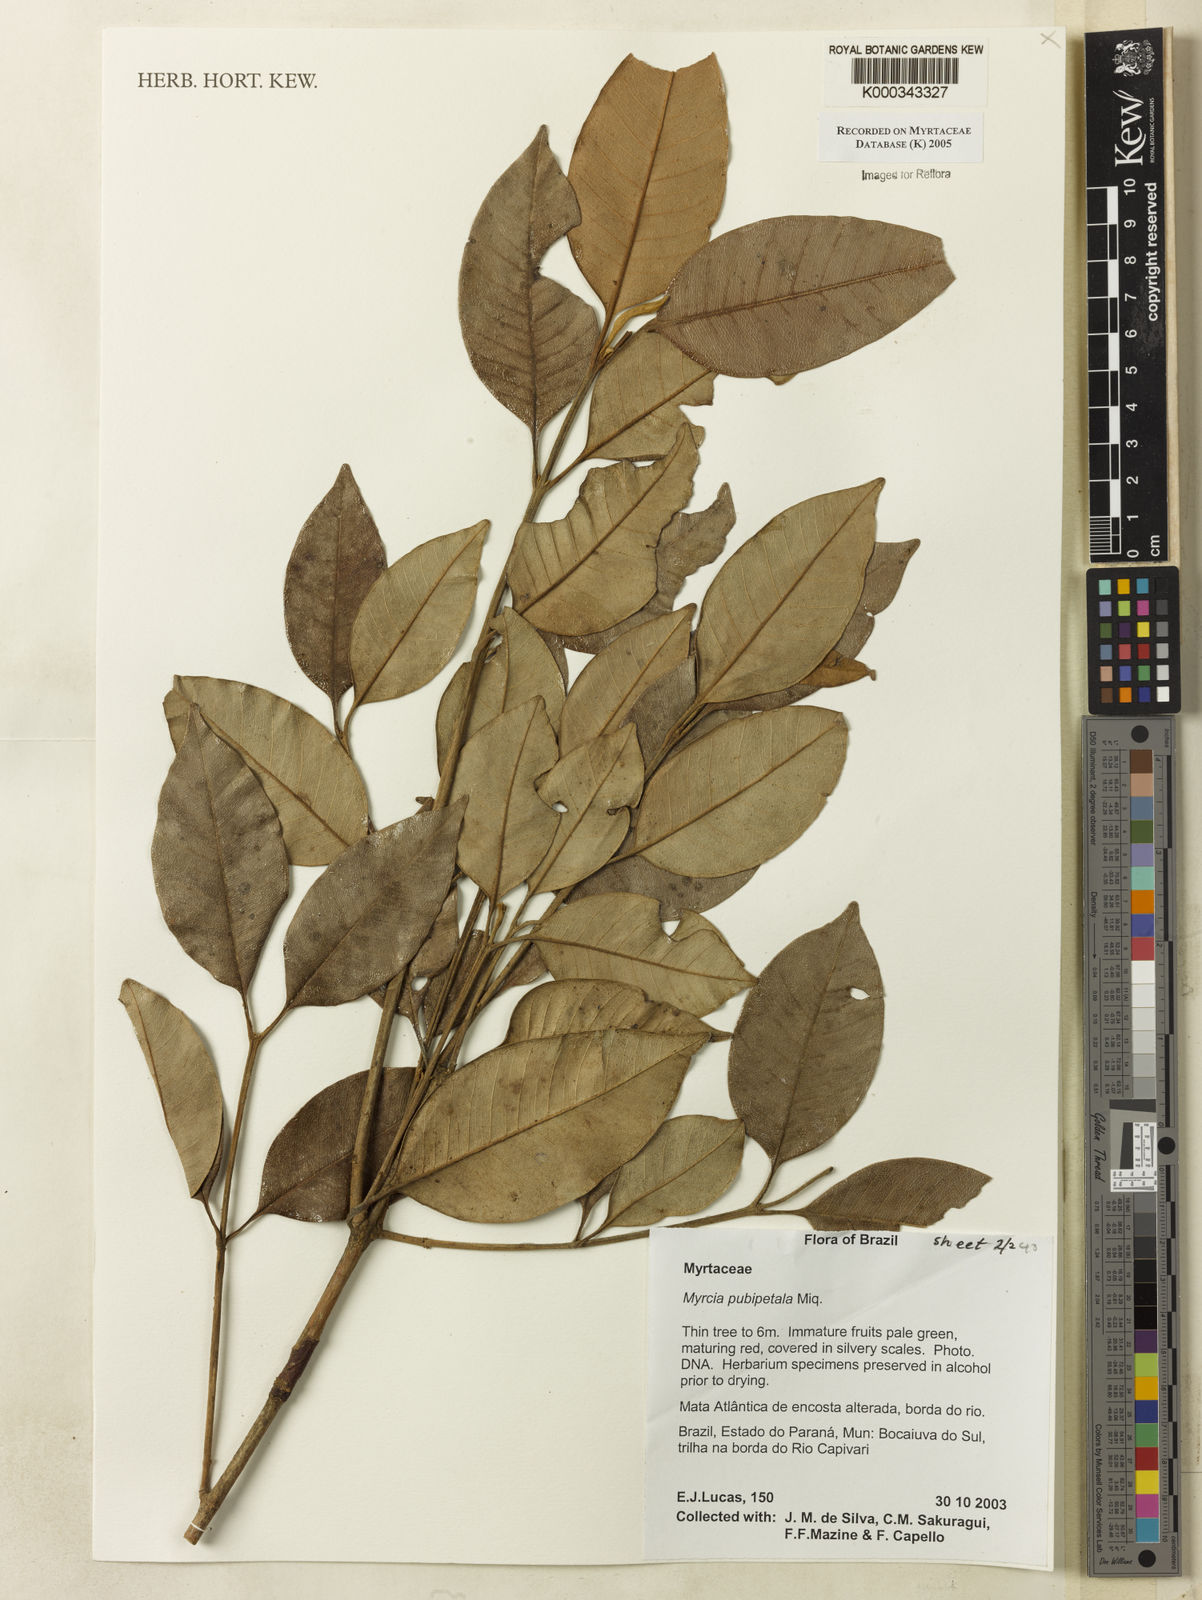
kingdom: Plantae
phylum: Tracheophyta
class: Magnoliopsida
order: Myrtales
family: Myrtaceae
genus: Myrcia
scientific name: Myrcia pubipetala
